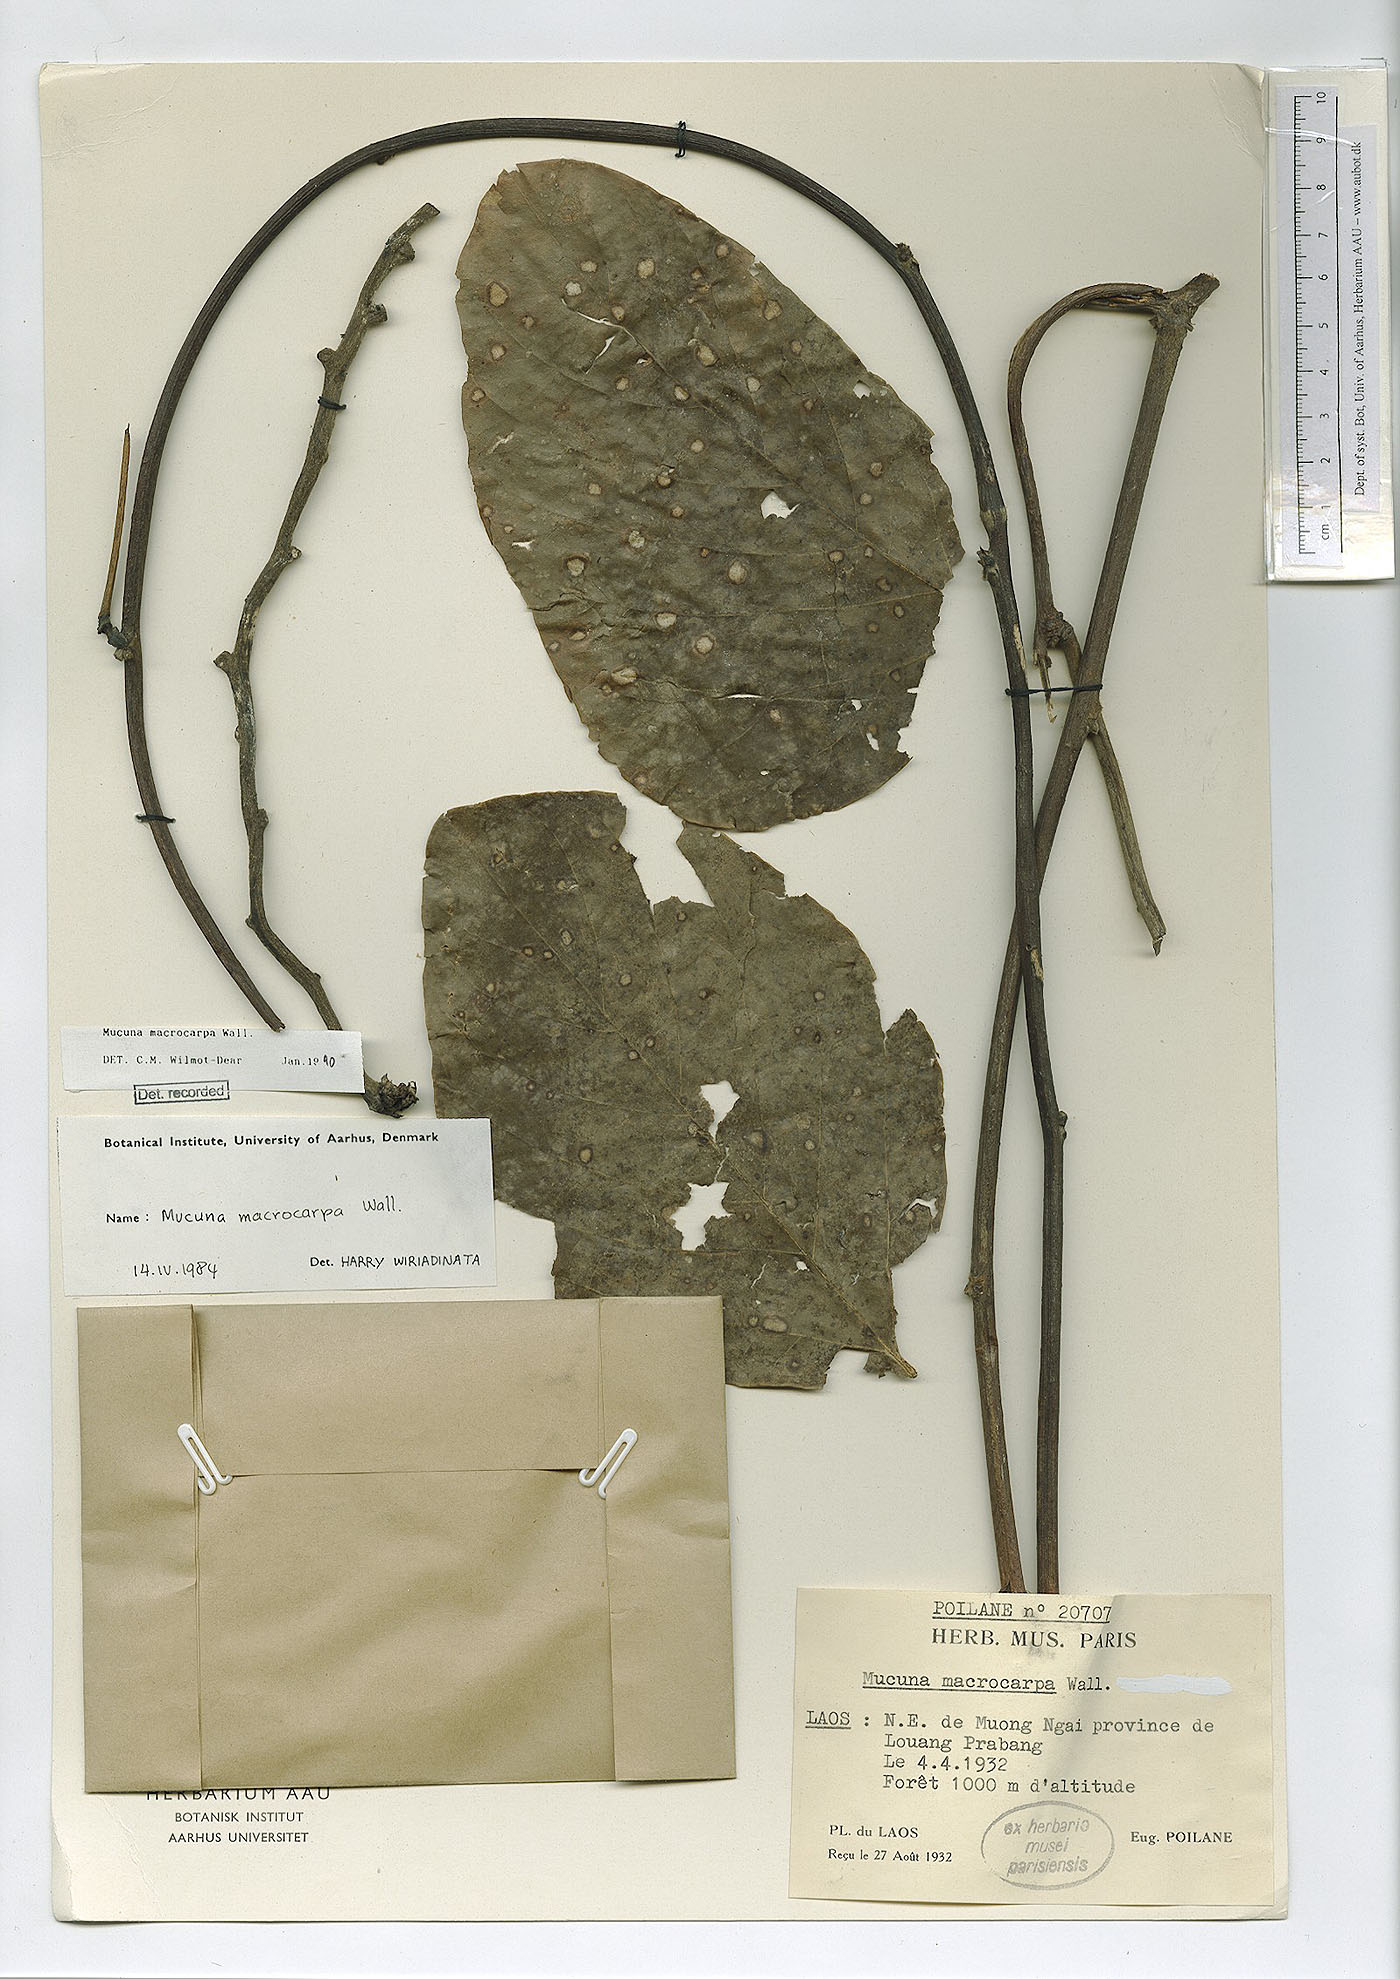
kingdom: Plantae
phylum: Tracheophyta
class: Magnoliopsida
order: Fabales
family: Fabaceae
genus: Mucuna
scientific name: Mucuna macrocarpa
